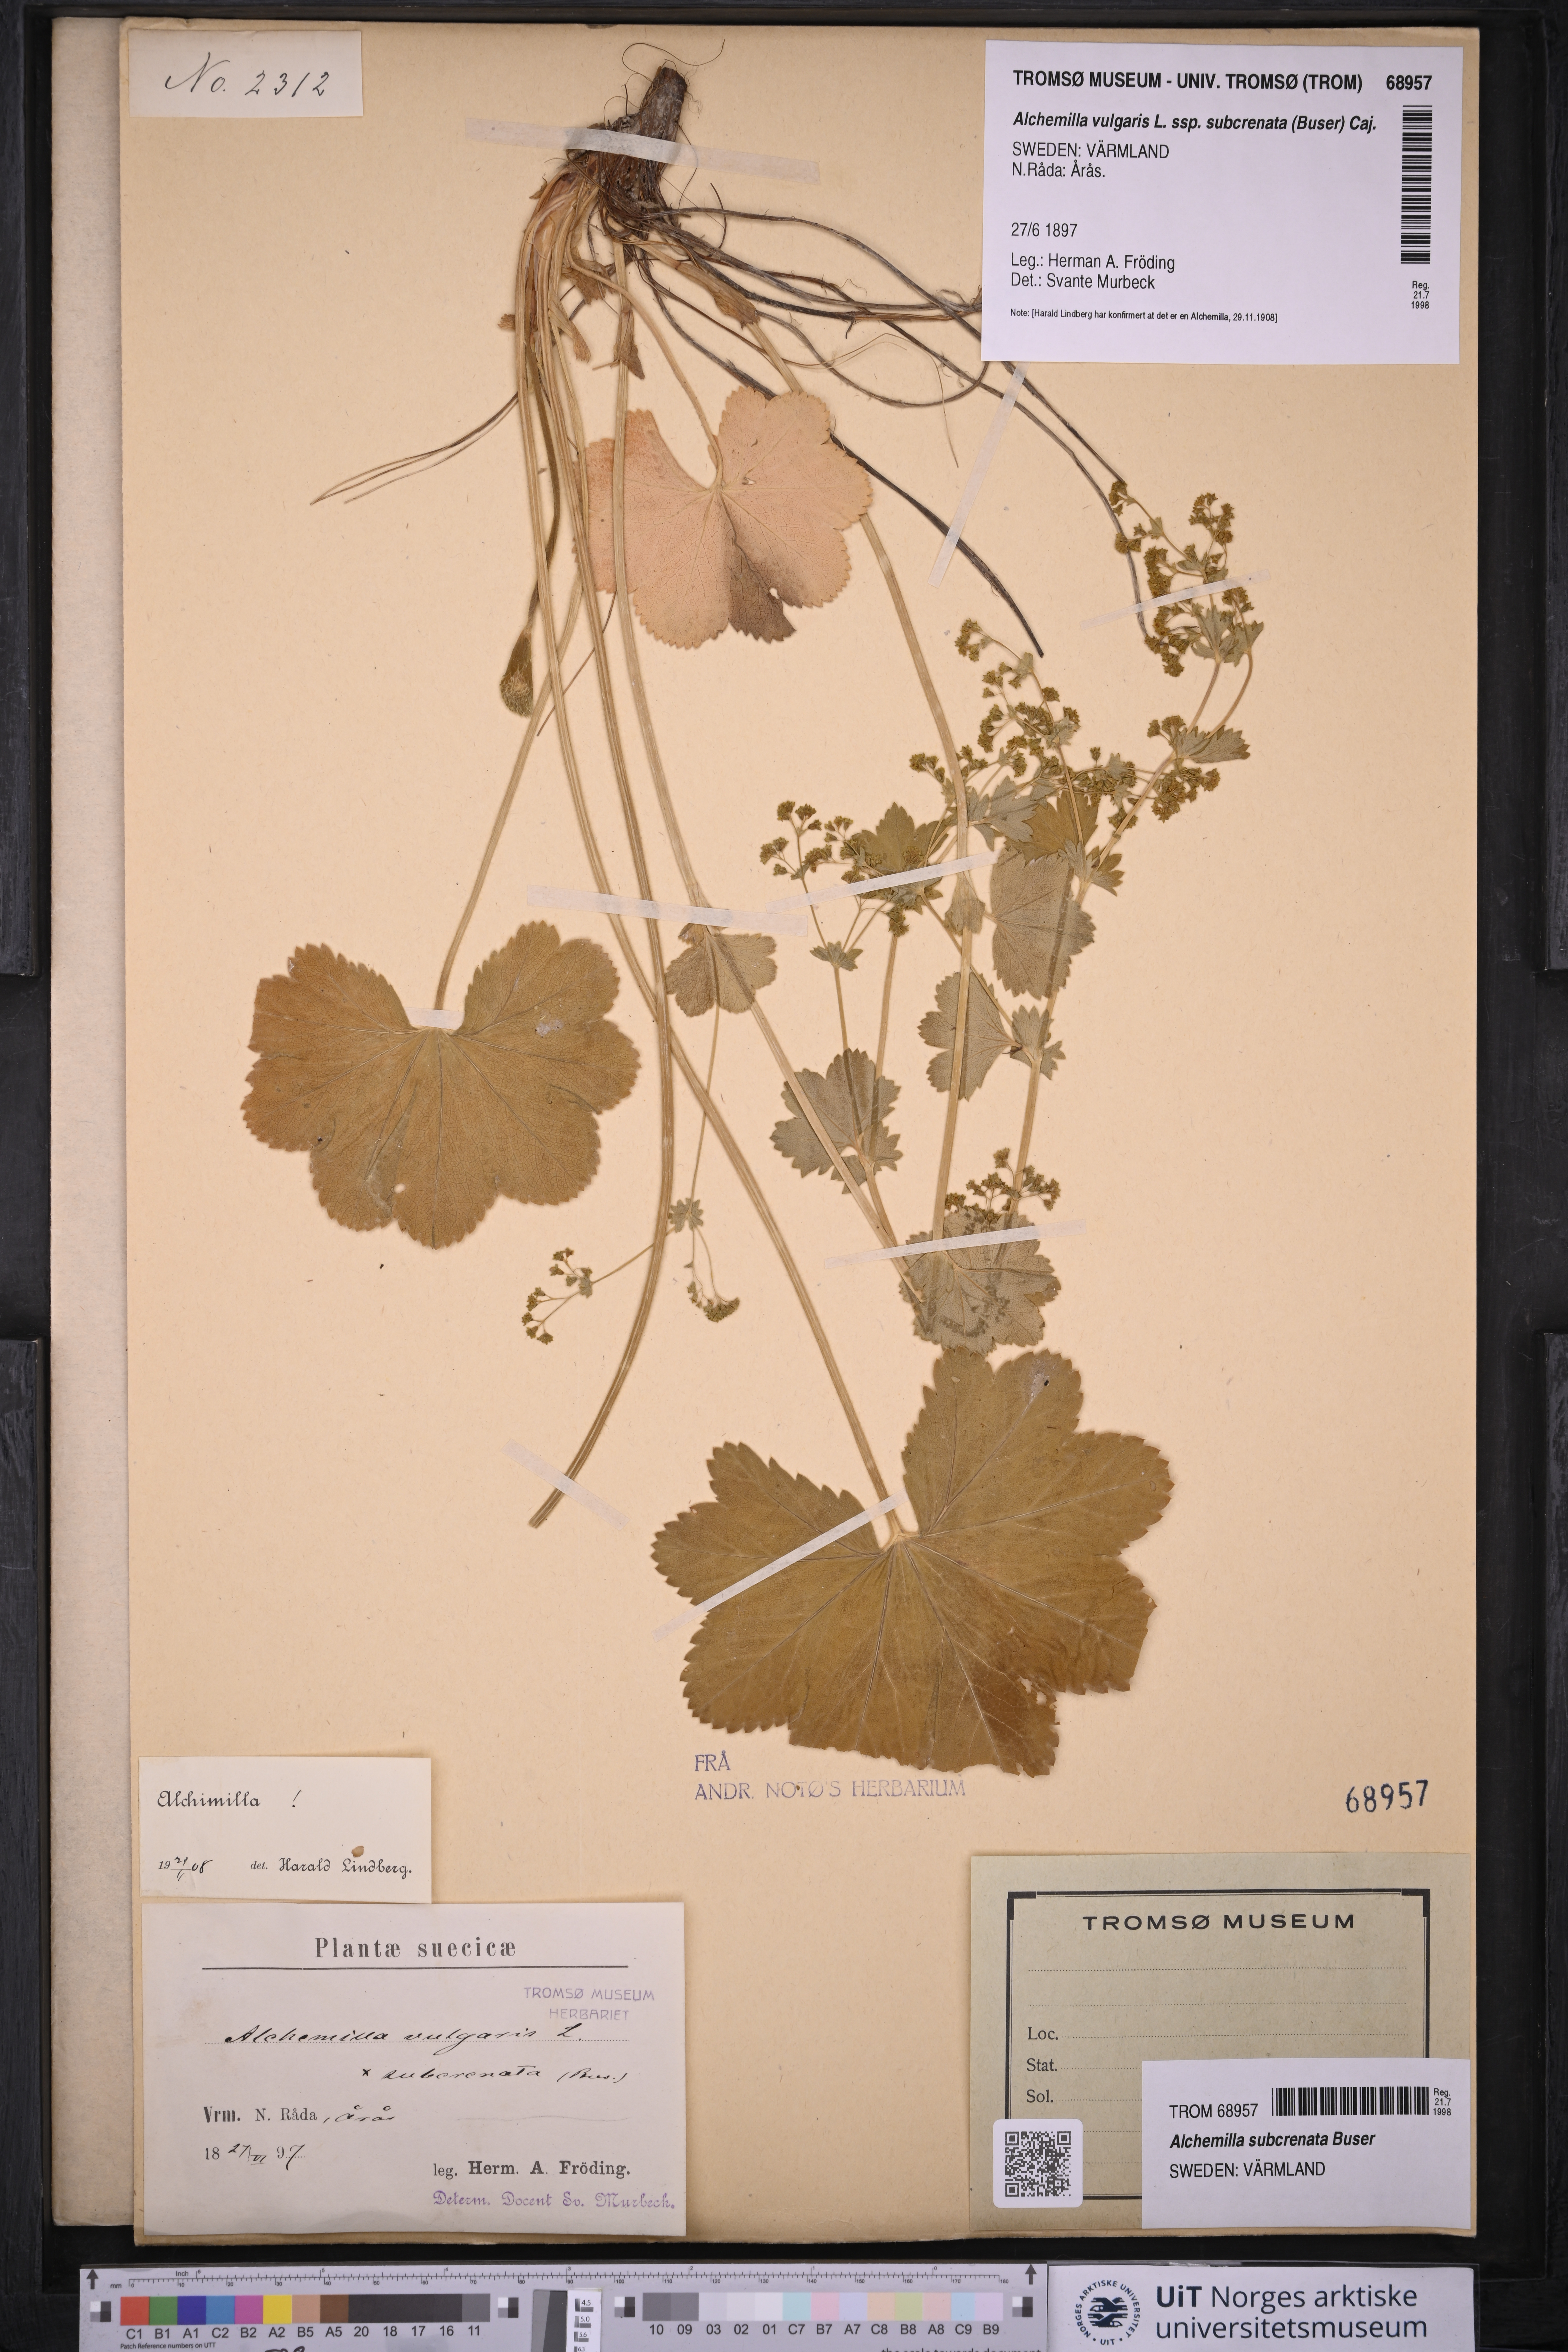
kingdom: Plantae
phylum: Tracheophyta
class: Magnoliopsida
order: Rosales
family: Rosaceae
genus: Alchemilla
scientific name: Alchemilla subcrenata
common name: Broadtooth lady's mantle
